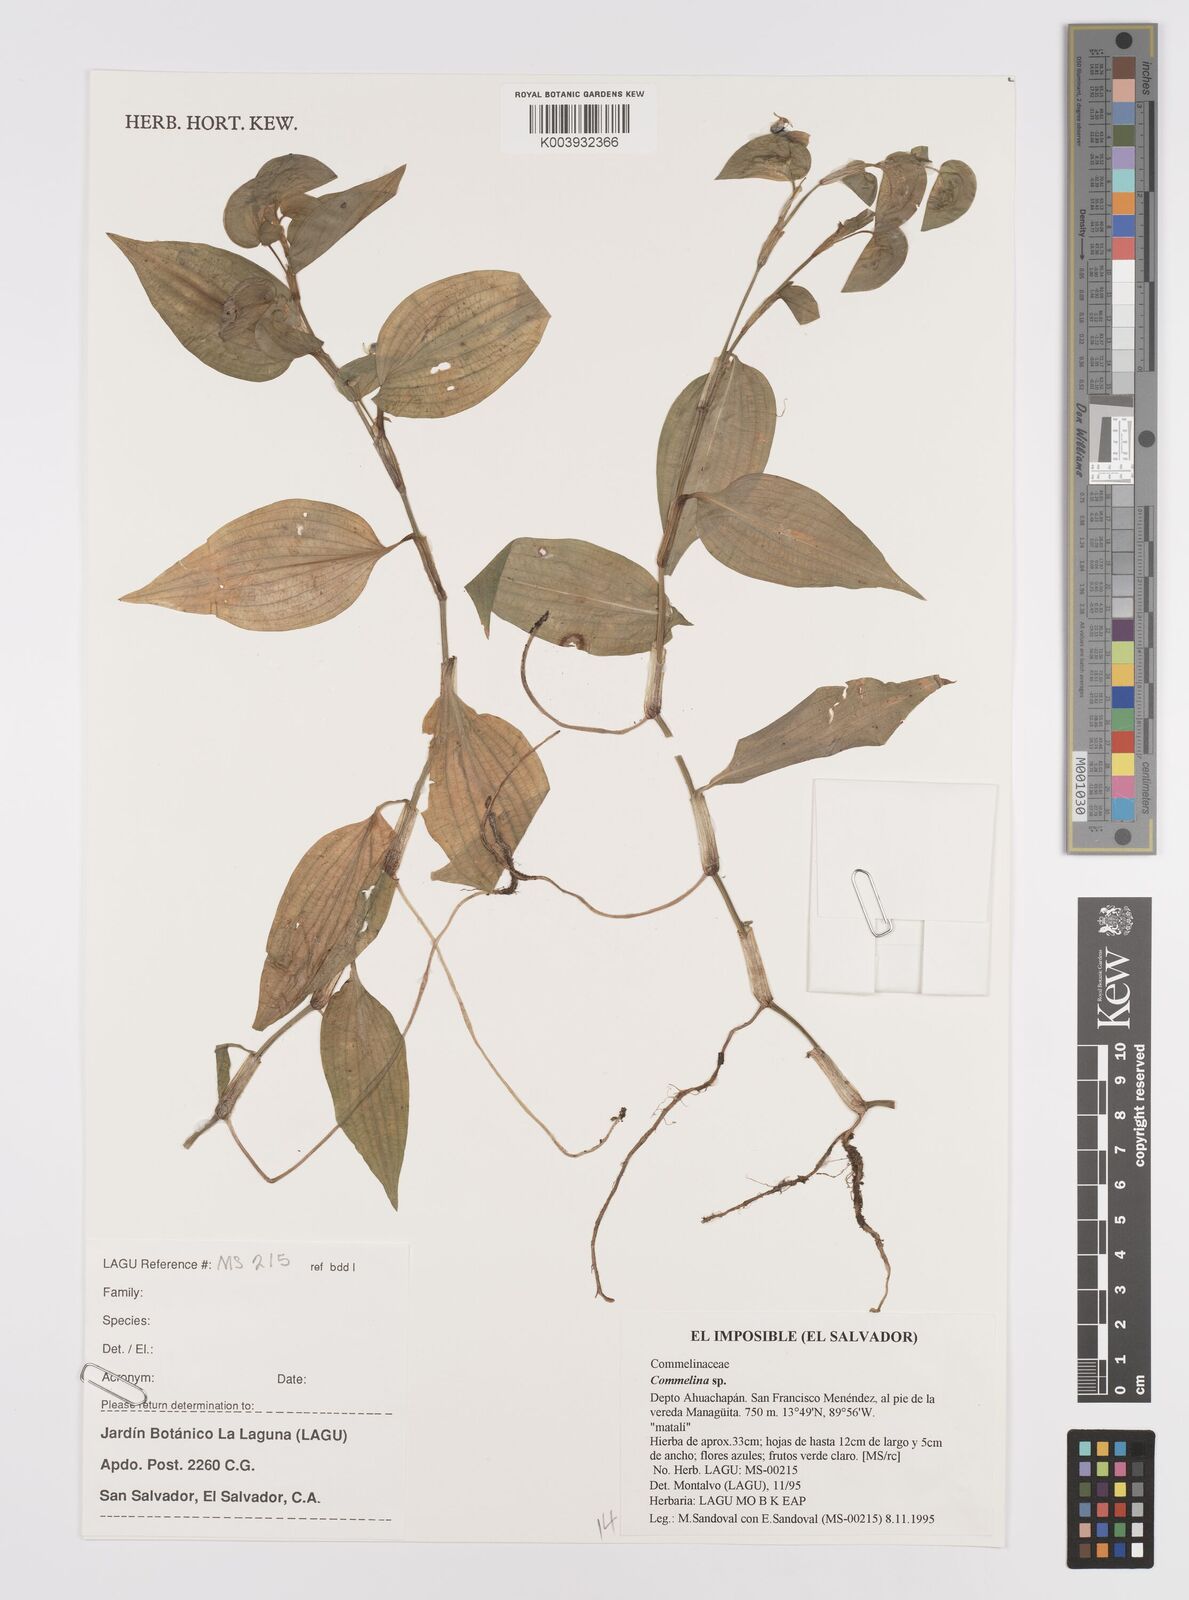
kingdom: Plantae
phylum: Tracheophyta
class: Liliopsida
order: Commelinales
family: Commelinaceae
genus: Commelina
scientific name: Commelina
